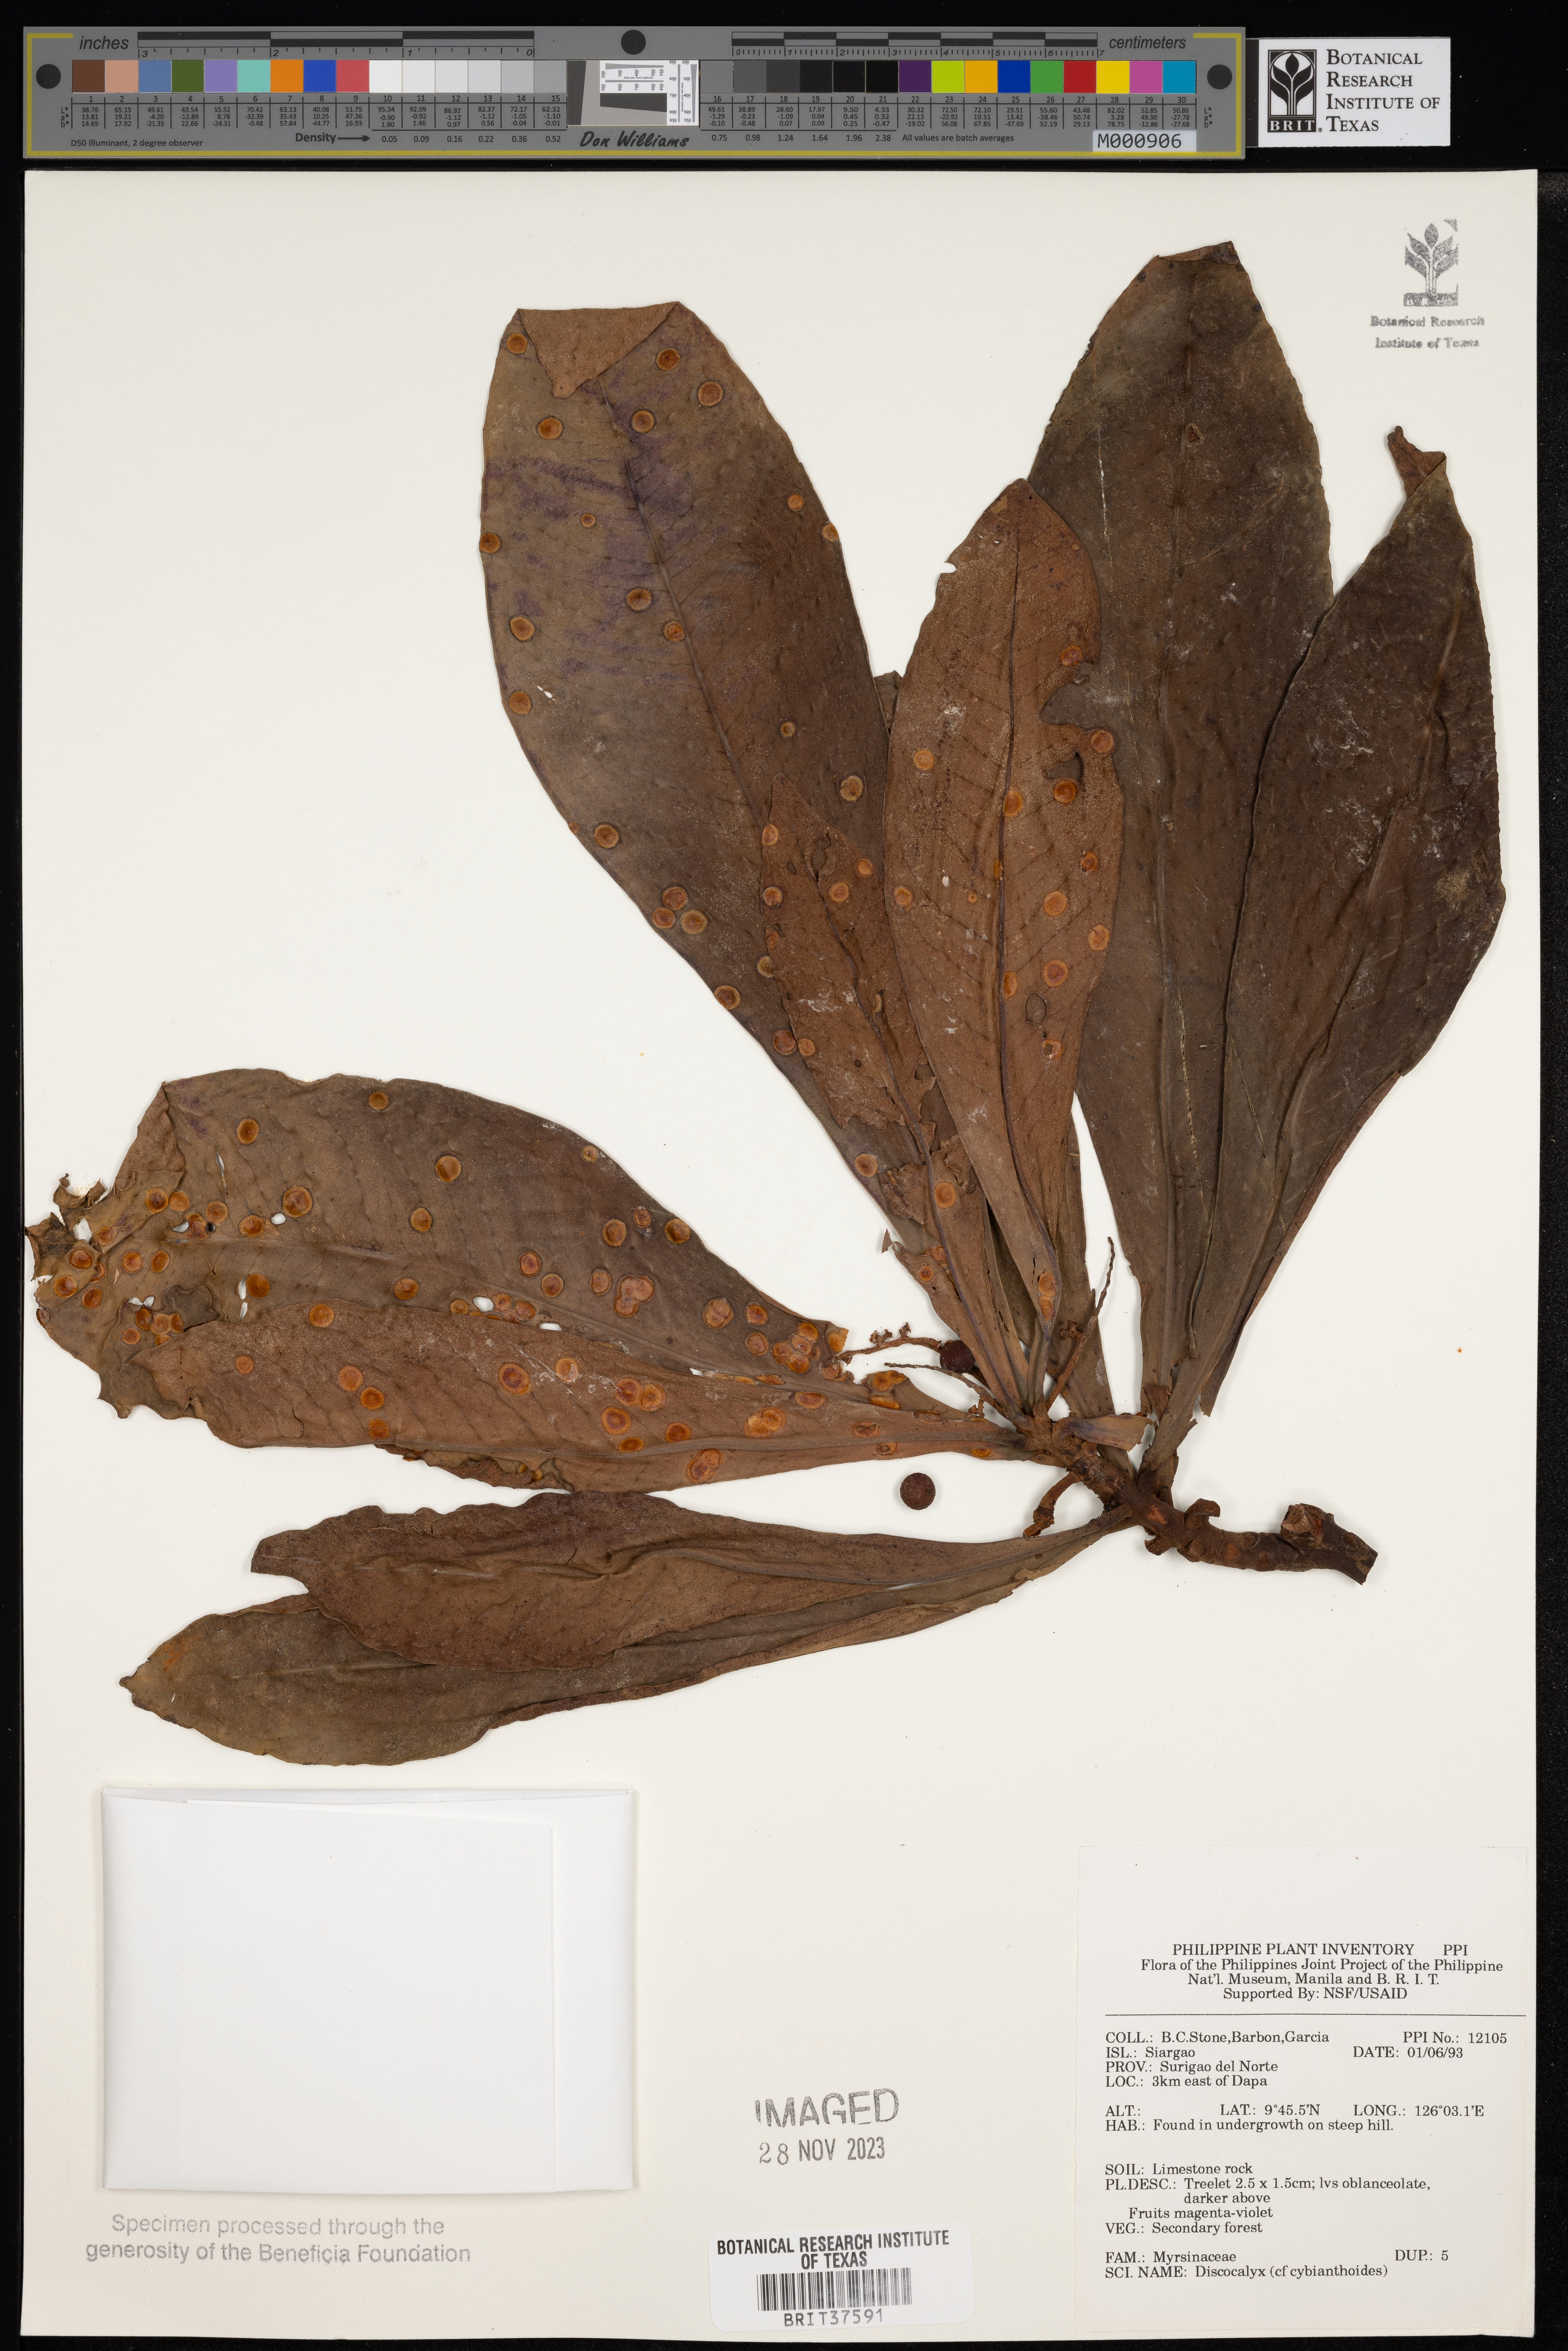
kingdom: Plantae
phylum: Tracheophyta
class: Magnoliopsida
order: Ericales
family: Primulaceae
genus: Discocalyx
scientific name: Discocalyx cybianthoides
